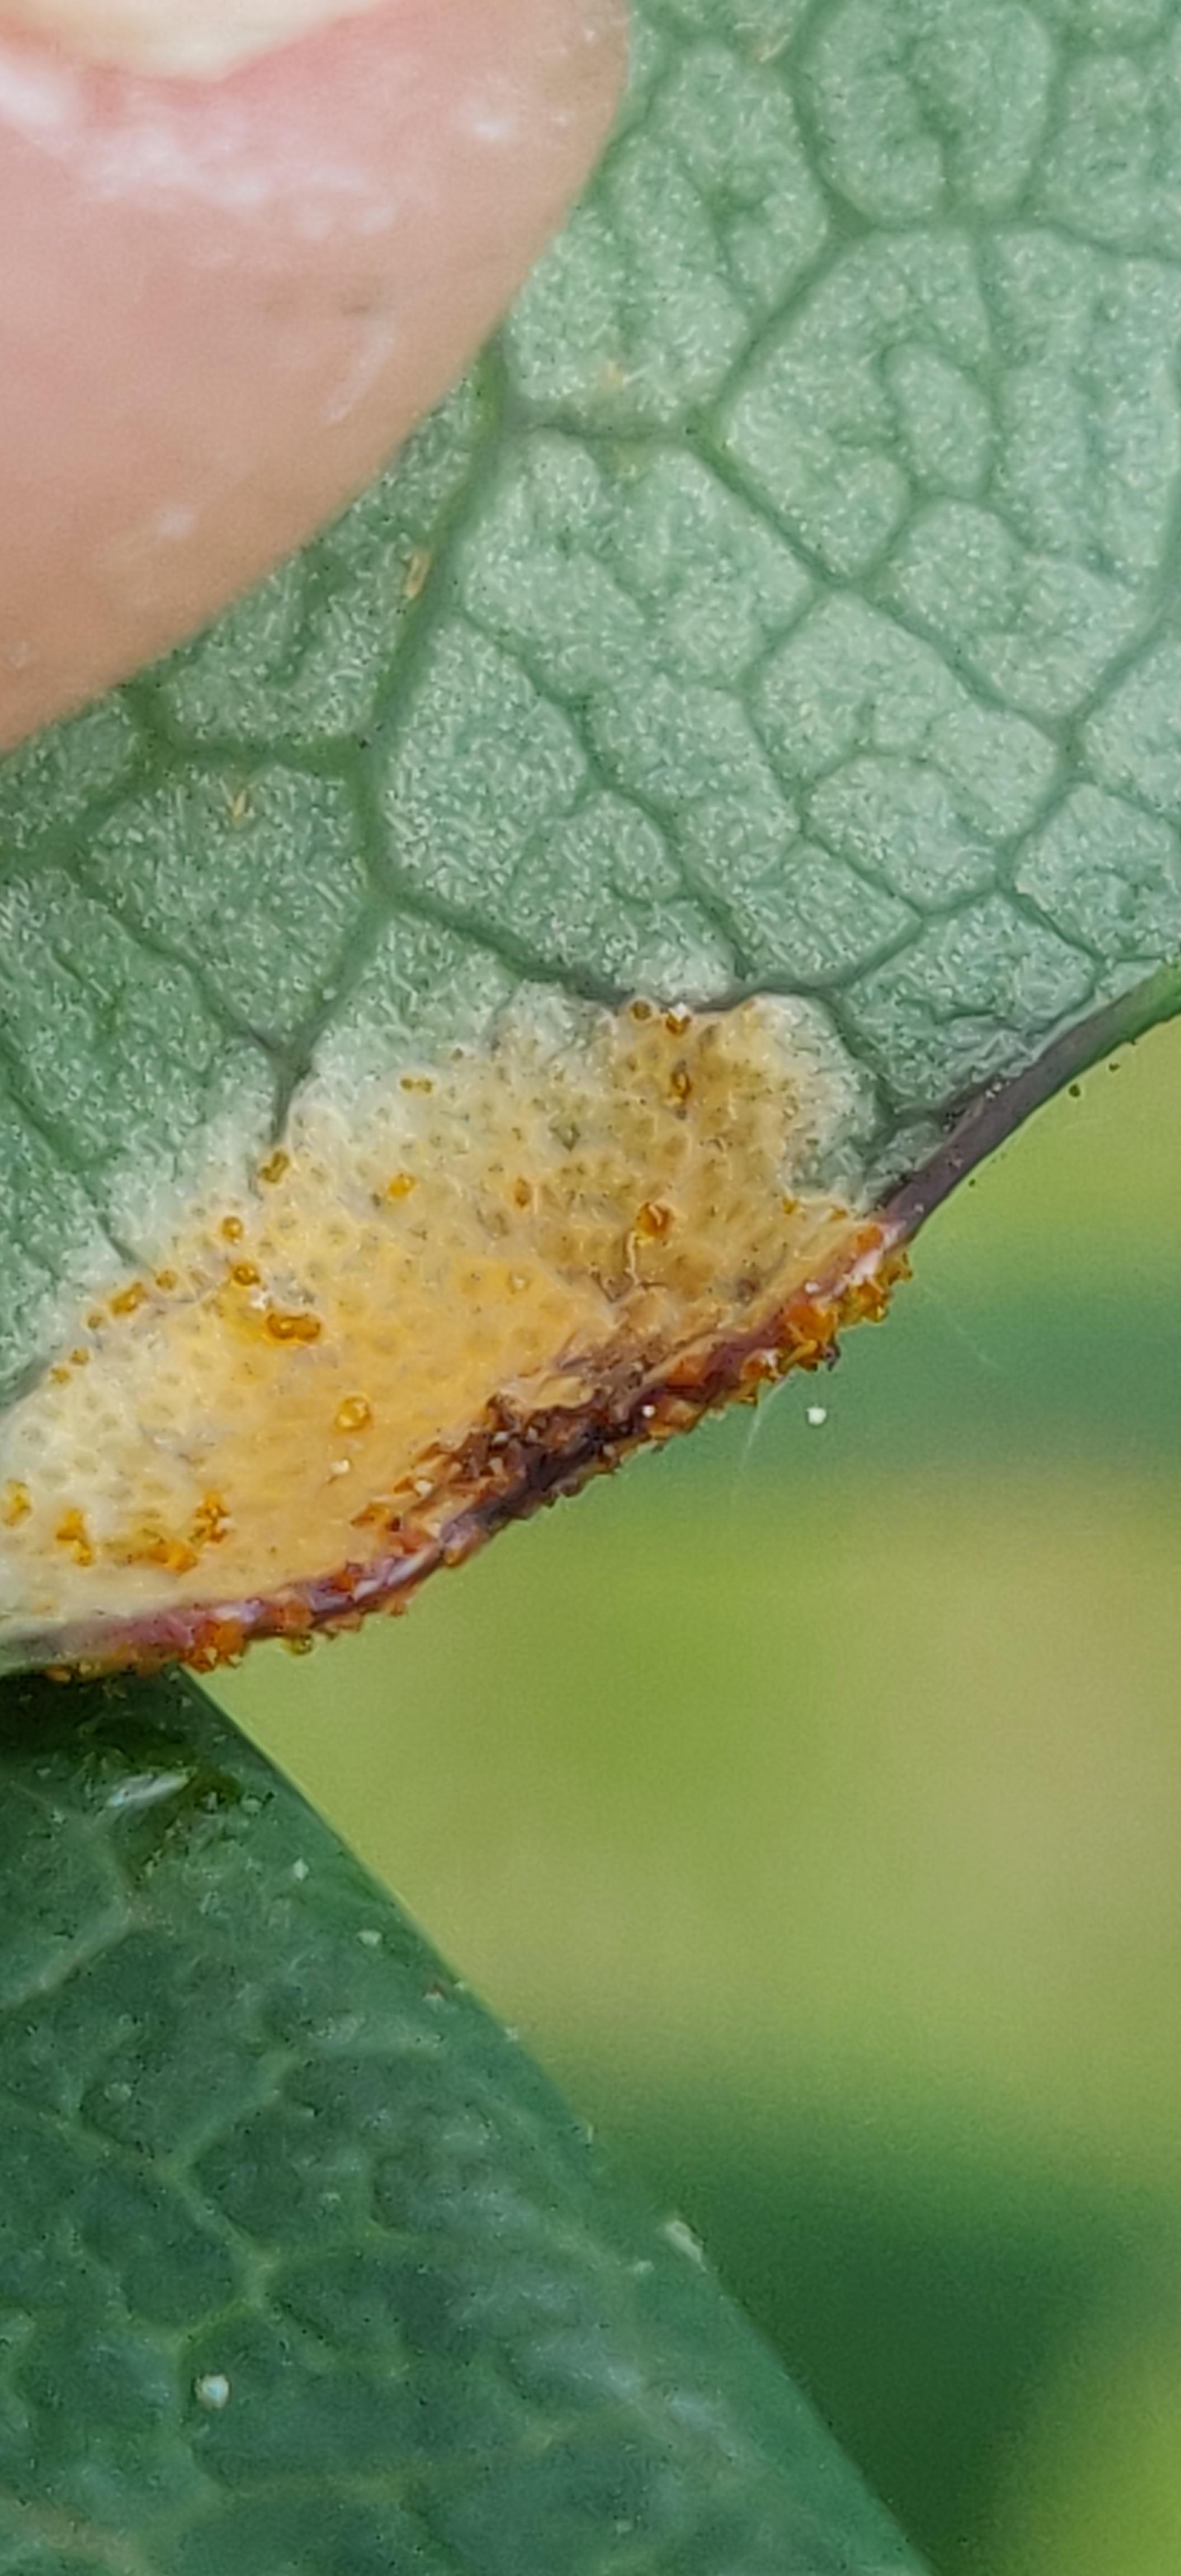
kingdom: Fungi
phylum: Basidiomycota
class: Pucciniomycetes
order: Pucciniales
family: Pucciniaceae
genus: Puccinia
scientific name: Puccinia festucae
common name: gedeblad-tvecellerust
